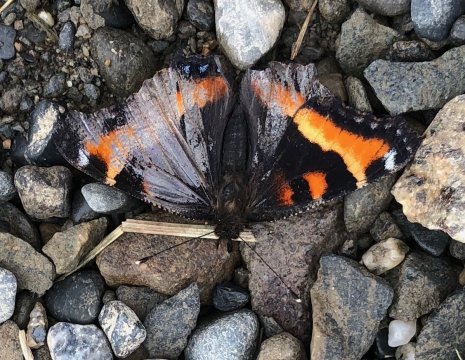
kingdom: Animalia
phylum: Arthropoda
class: Insecta
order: Lepidoptera
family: Nymphalidae
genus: Aglais
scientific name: Aglais milberti
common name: Milbert's Tortoiseshell
